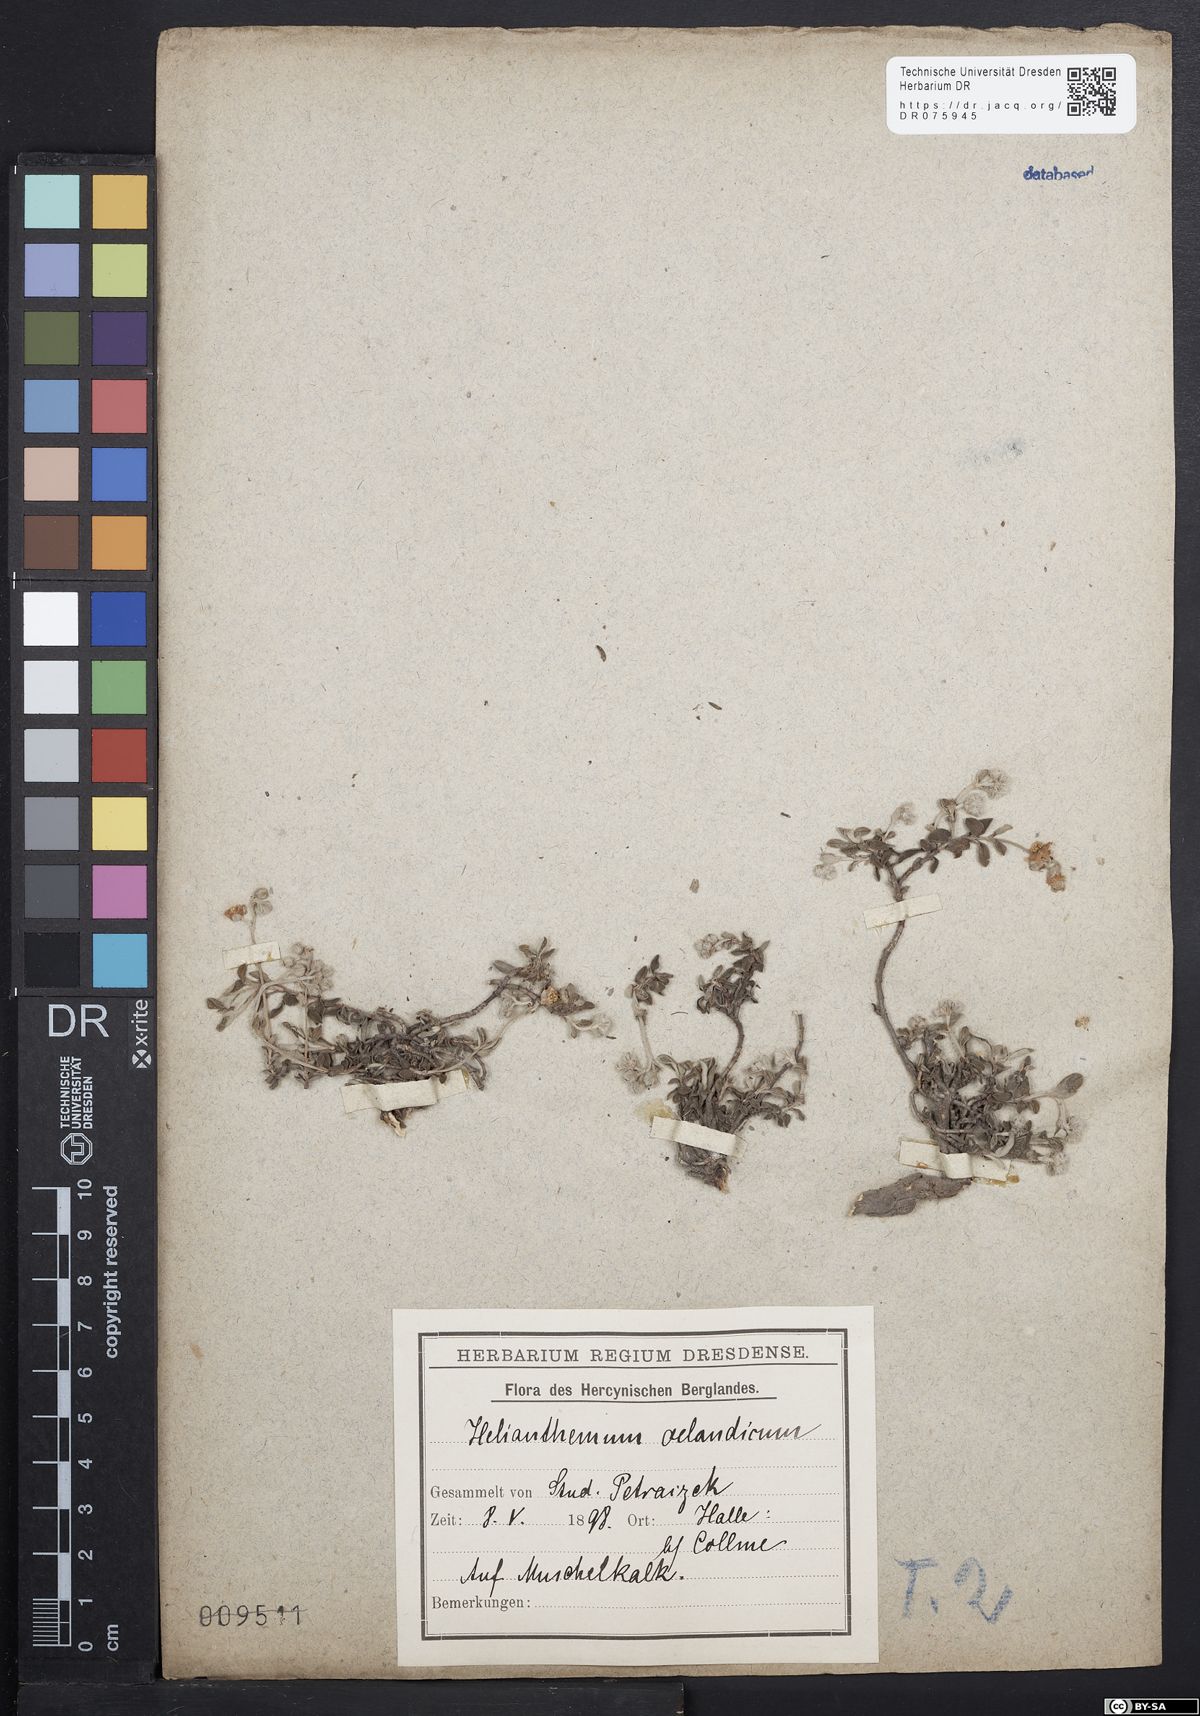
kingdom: Plantae
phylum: Tracheophyta
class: Magnoliopsida
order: Malvales
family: Cistaceae
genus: Helianthemum
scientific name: Helianthemum canum
